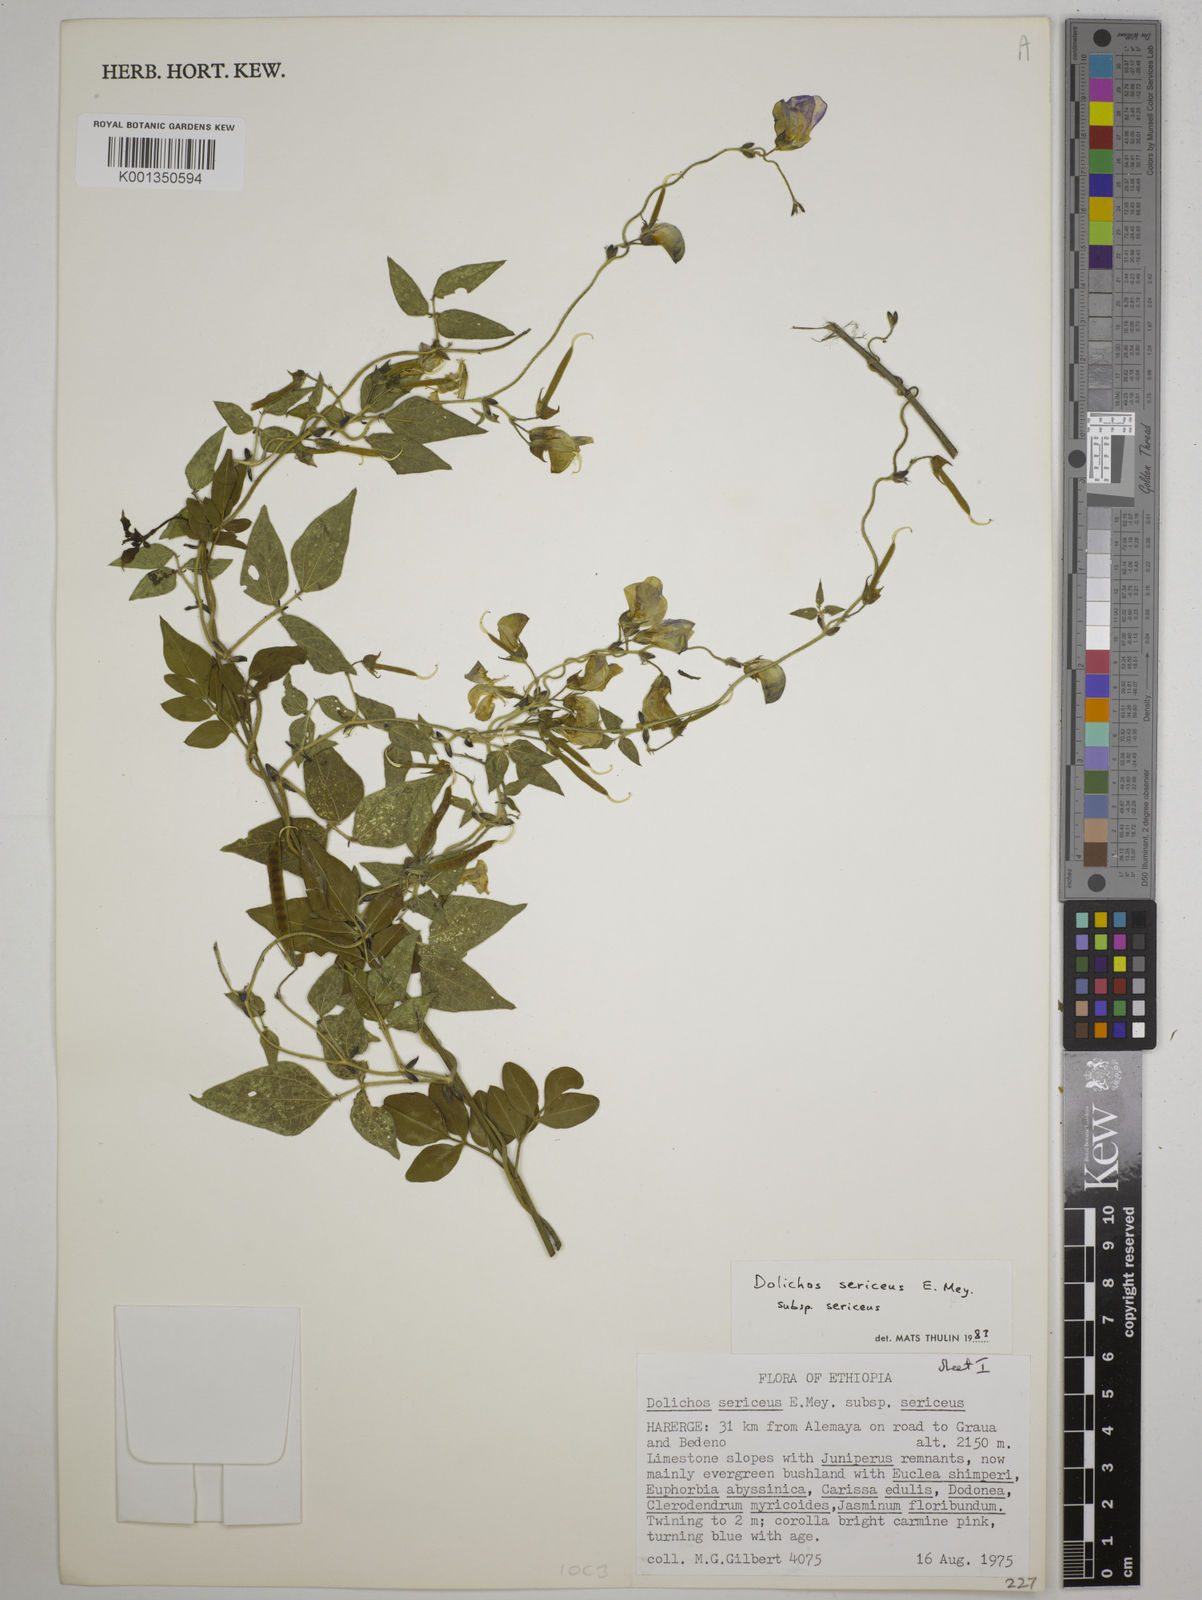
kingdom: Plantae
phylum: Tracheophyta
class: Magnoliopsida
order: Fabales
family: Fabaceae
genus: Dolichos
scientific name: Dolichos sericeus
